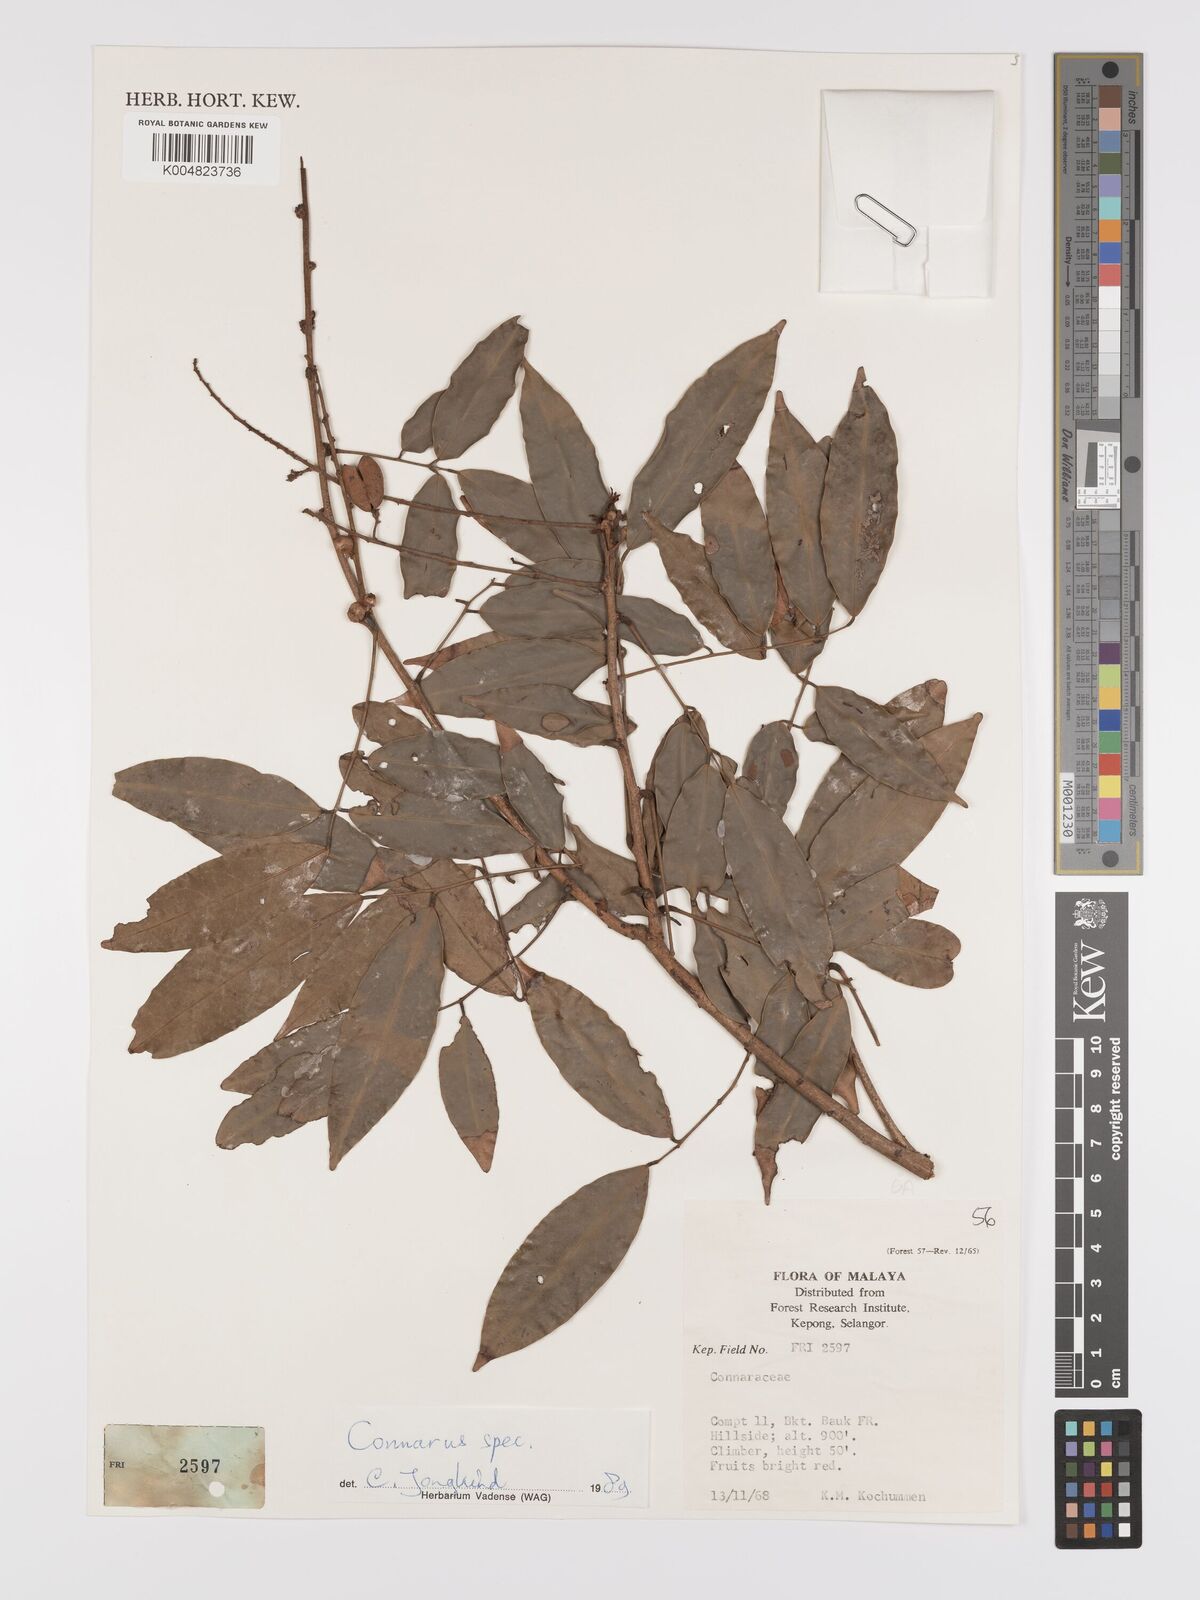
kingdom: Plantae
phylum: Tracheophyta
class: Magnoliopsida
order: Oxalidales
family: Connaraceae
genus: Connarus
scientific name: Connarus
